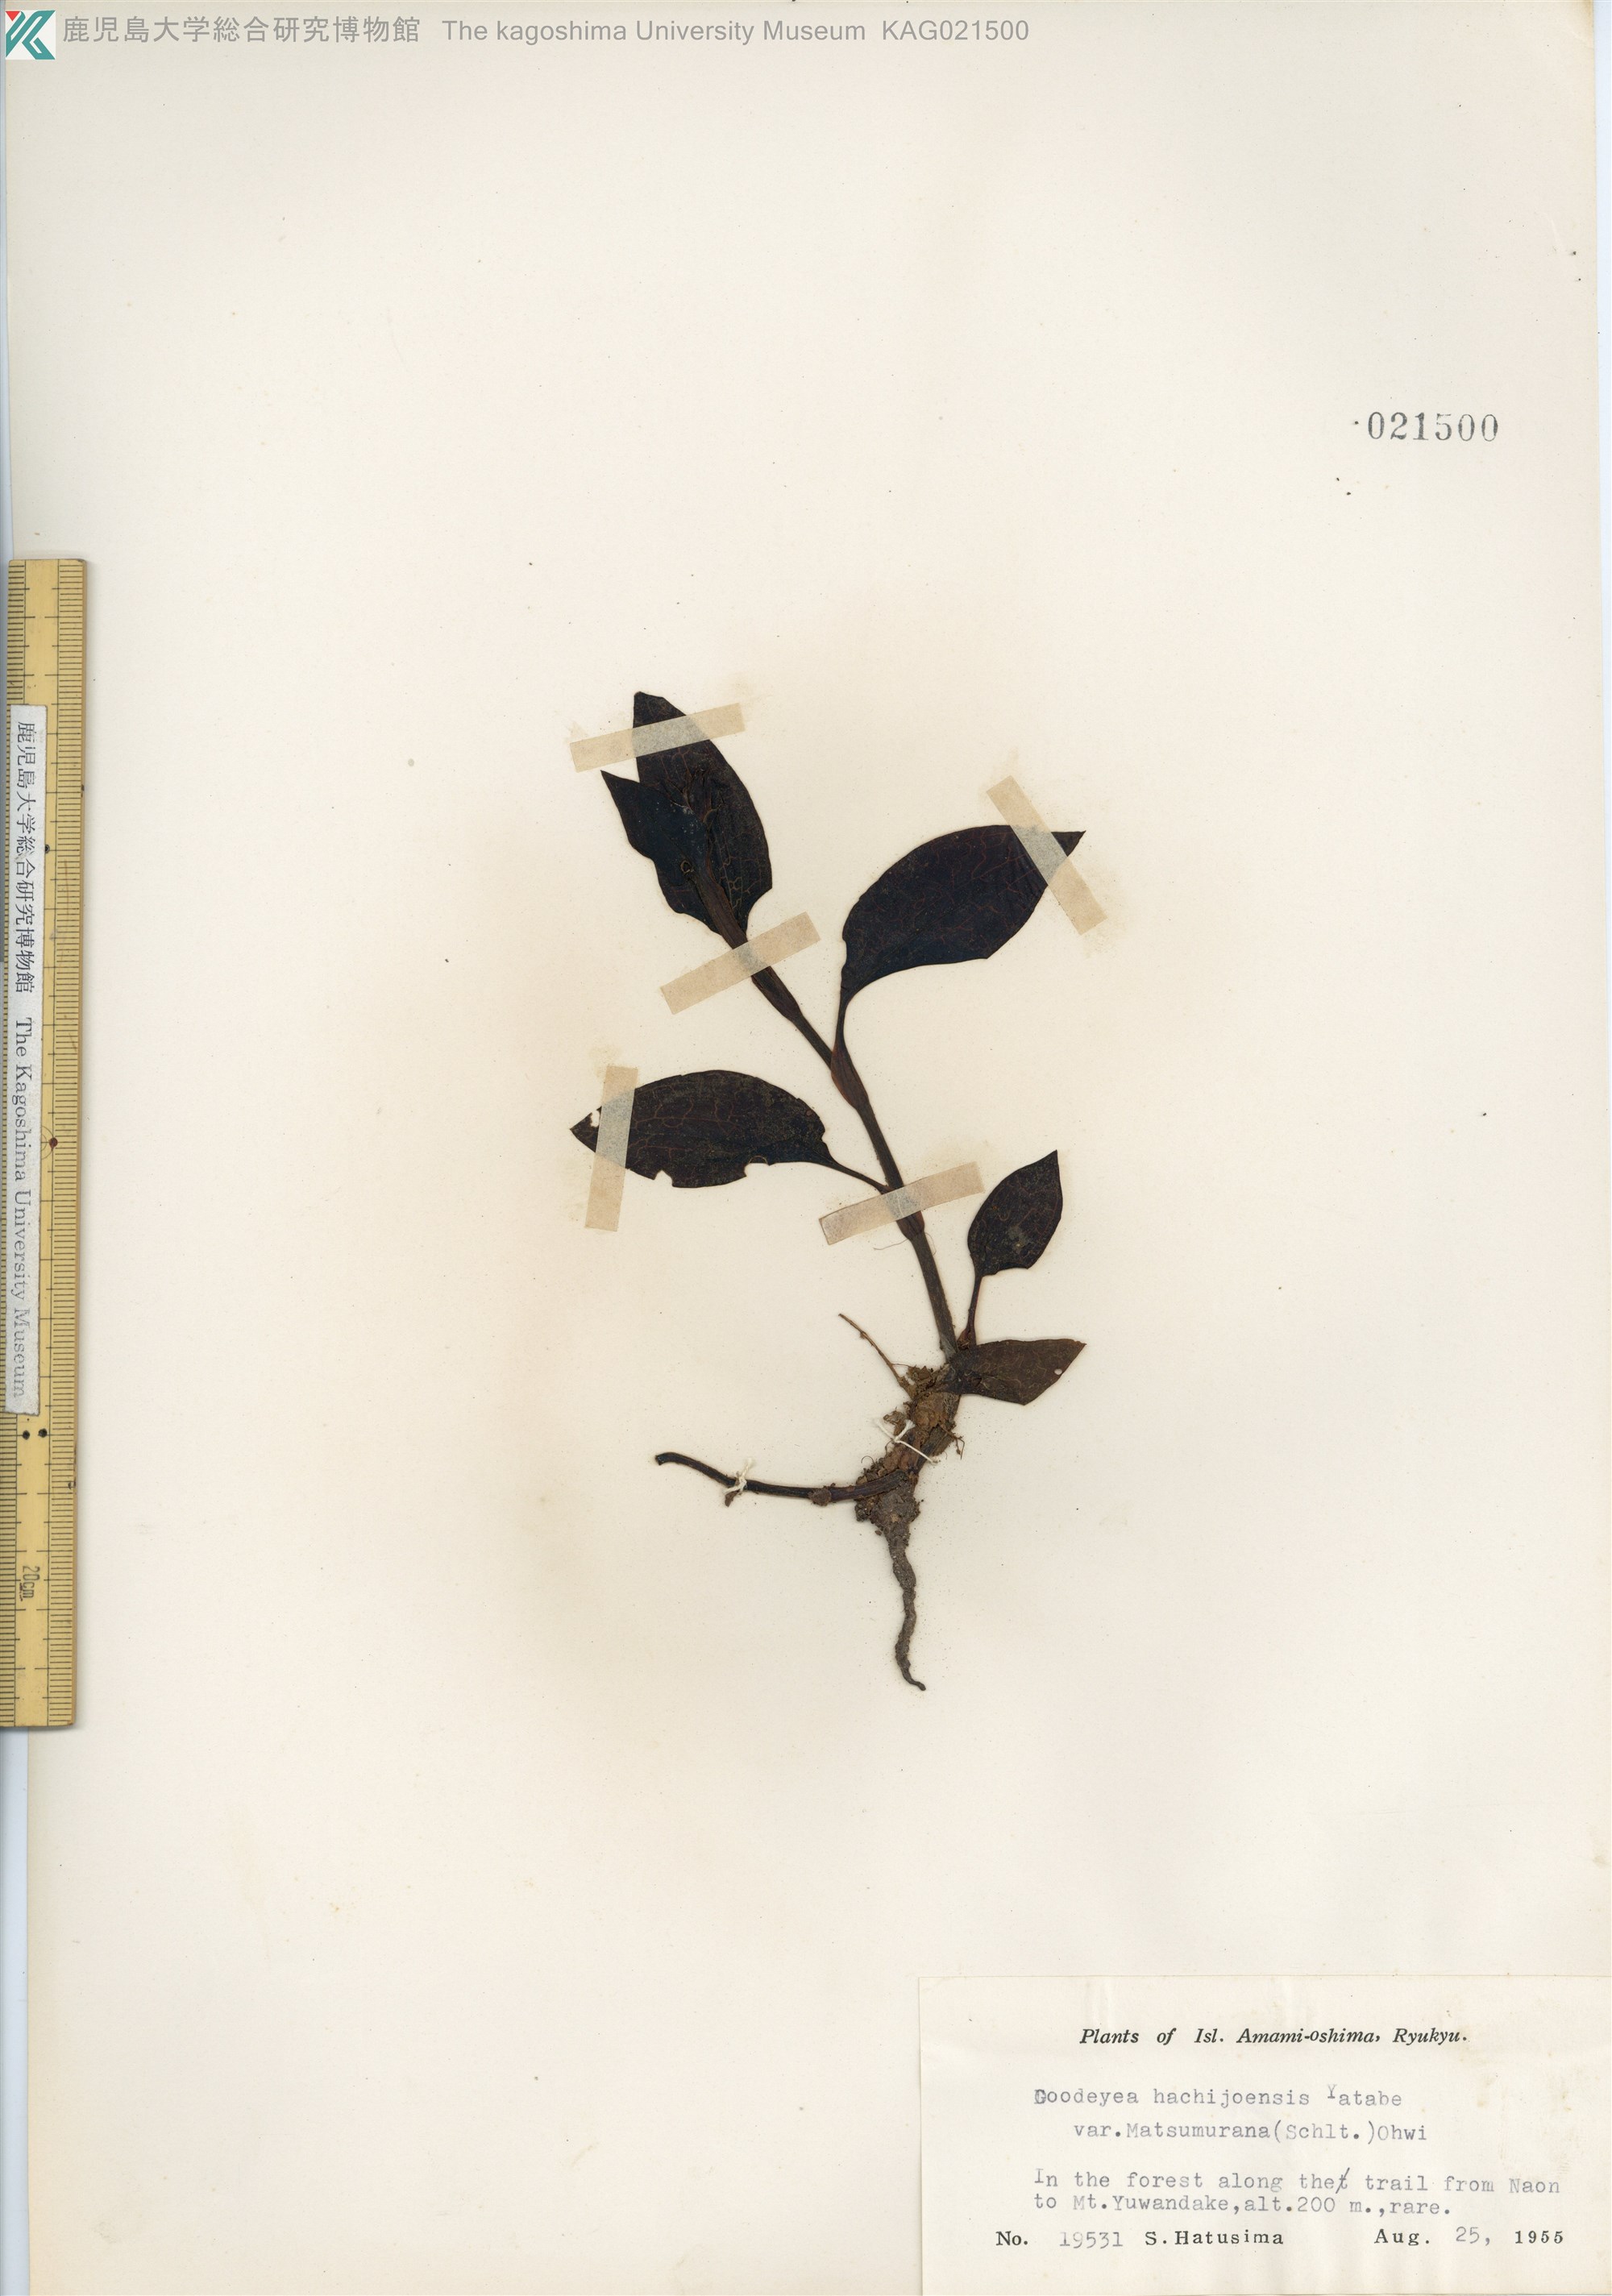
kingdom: Plantae
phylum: Tracheophyta
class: Liliopsida
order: Asparagales
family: Orchidaceae
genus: Goodyera
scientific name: Goodyera hachijoensis
